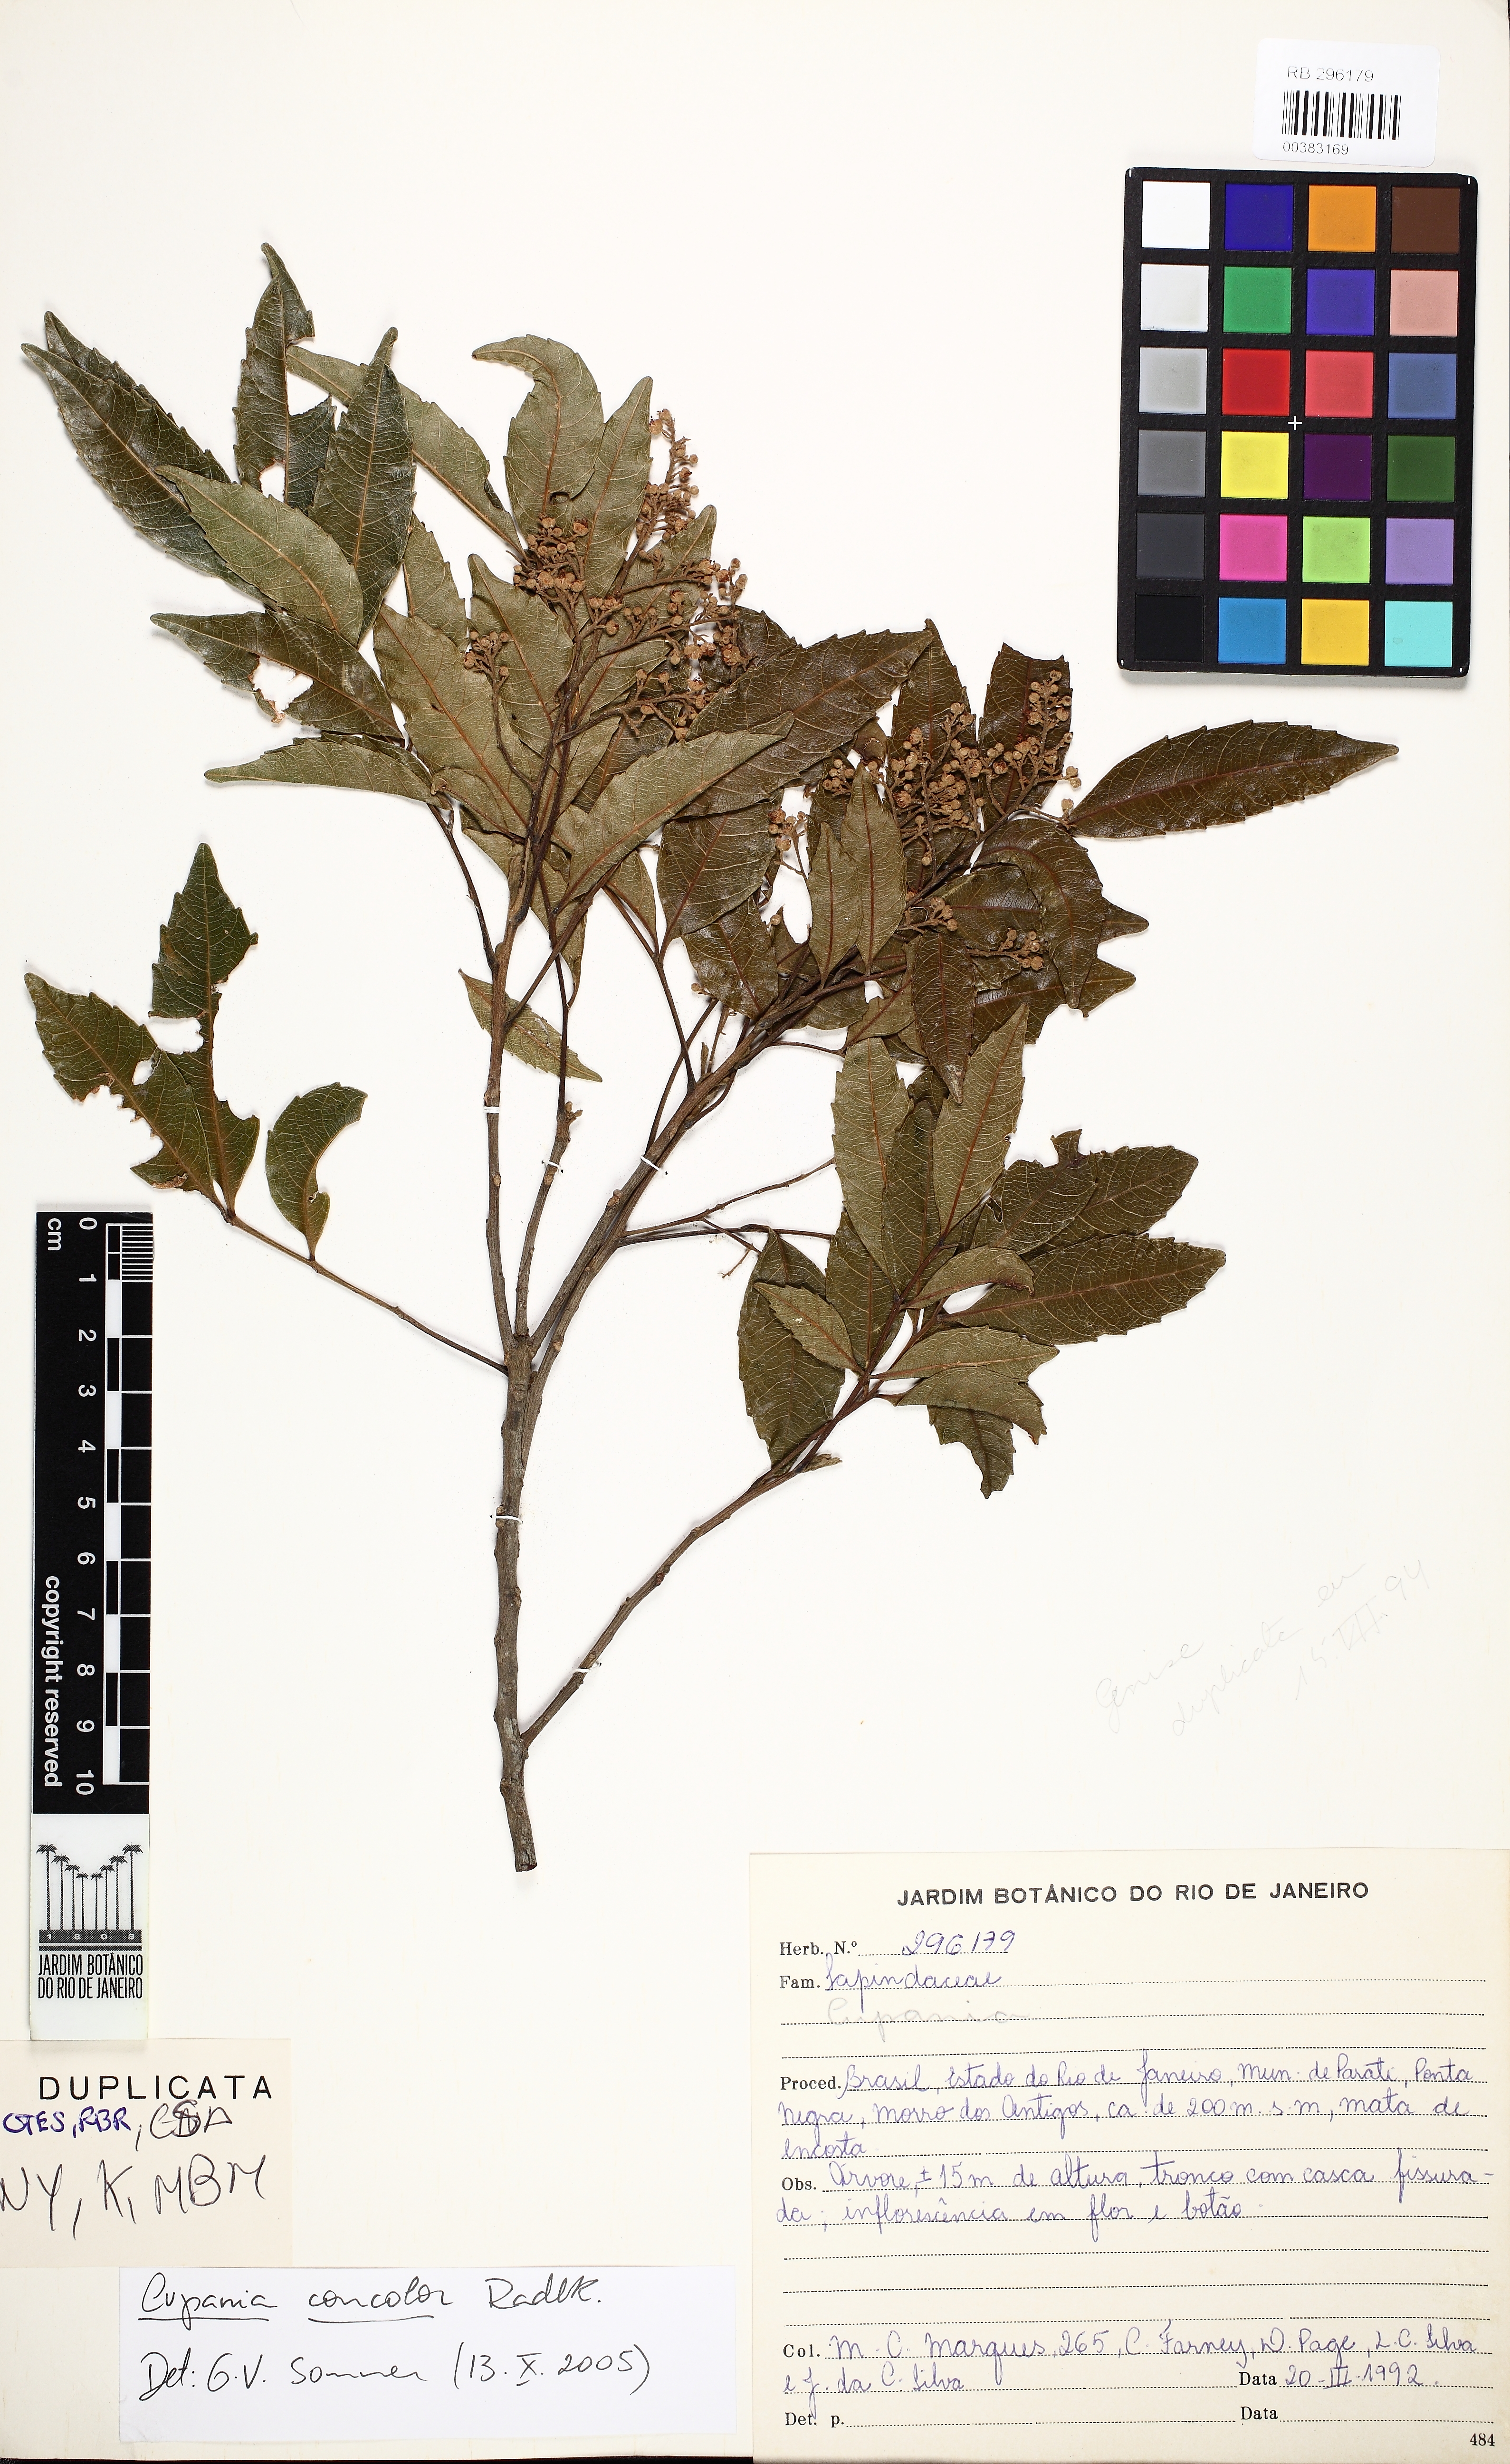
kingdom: Plantae
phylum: Tracheophyta
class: Magnoliopsida
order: Sapindales
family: Sapindaceae
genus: Cupania
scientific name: Cupania concolor
